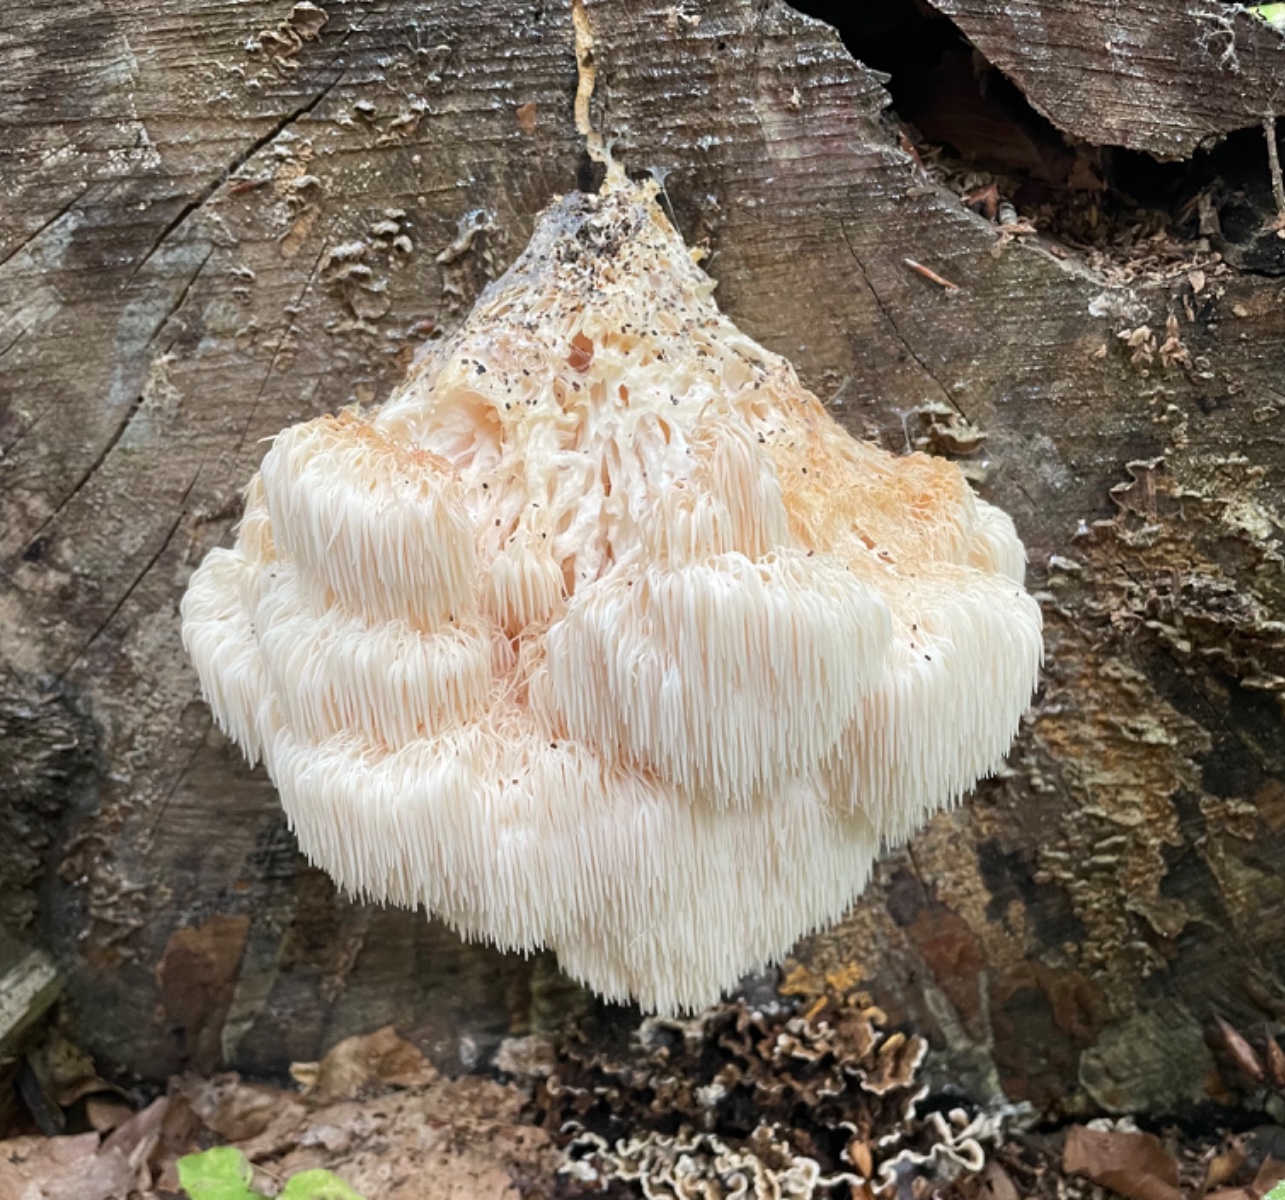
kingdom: Fungi
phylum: Basidiomycota
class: Agaricomycetes
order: Russulales
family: Hericiaceae
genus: Hericium
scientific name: Hericium erinaceus
